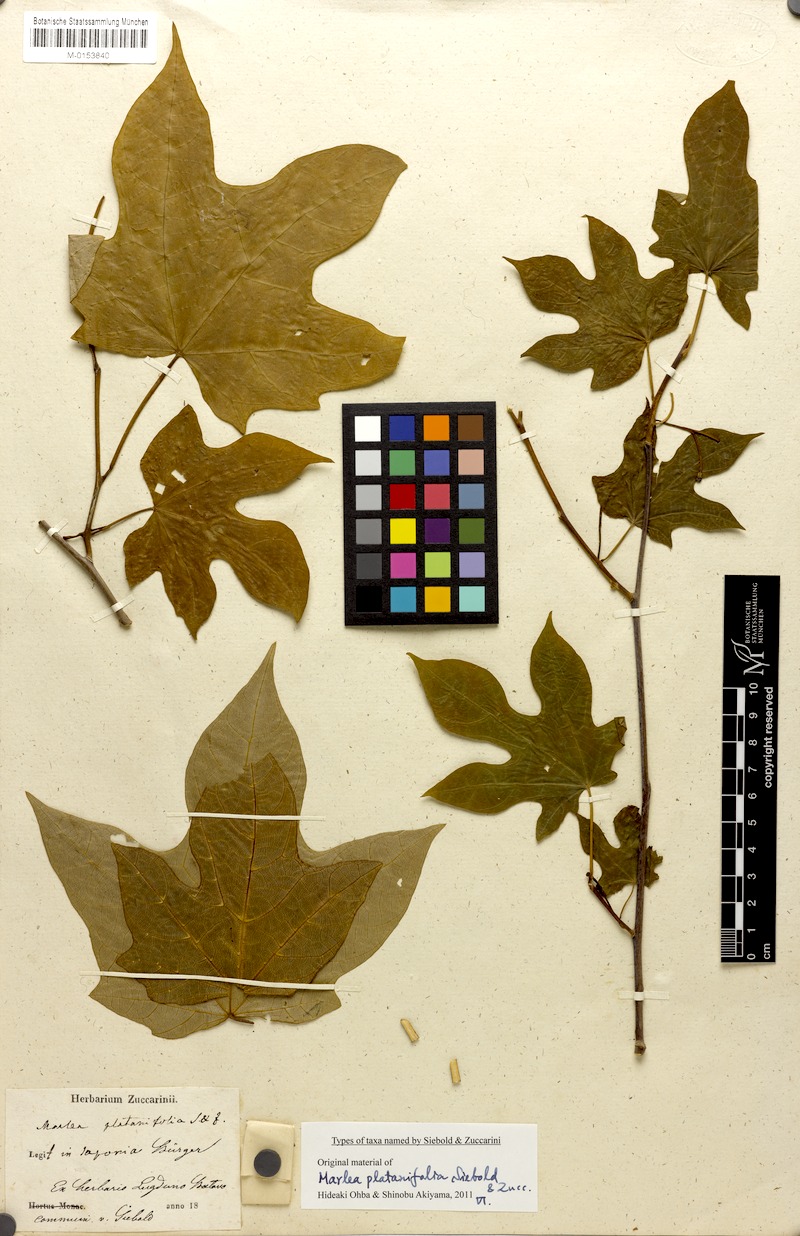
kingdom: Plantae
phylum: Tracheophyta
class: Magnoliopsida
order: Cornales
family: Cornaceae
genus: Alangium
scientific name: Alangium platanifolium
